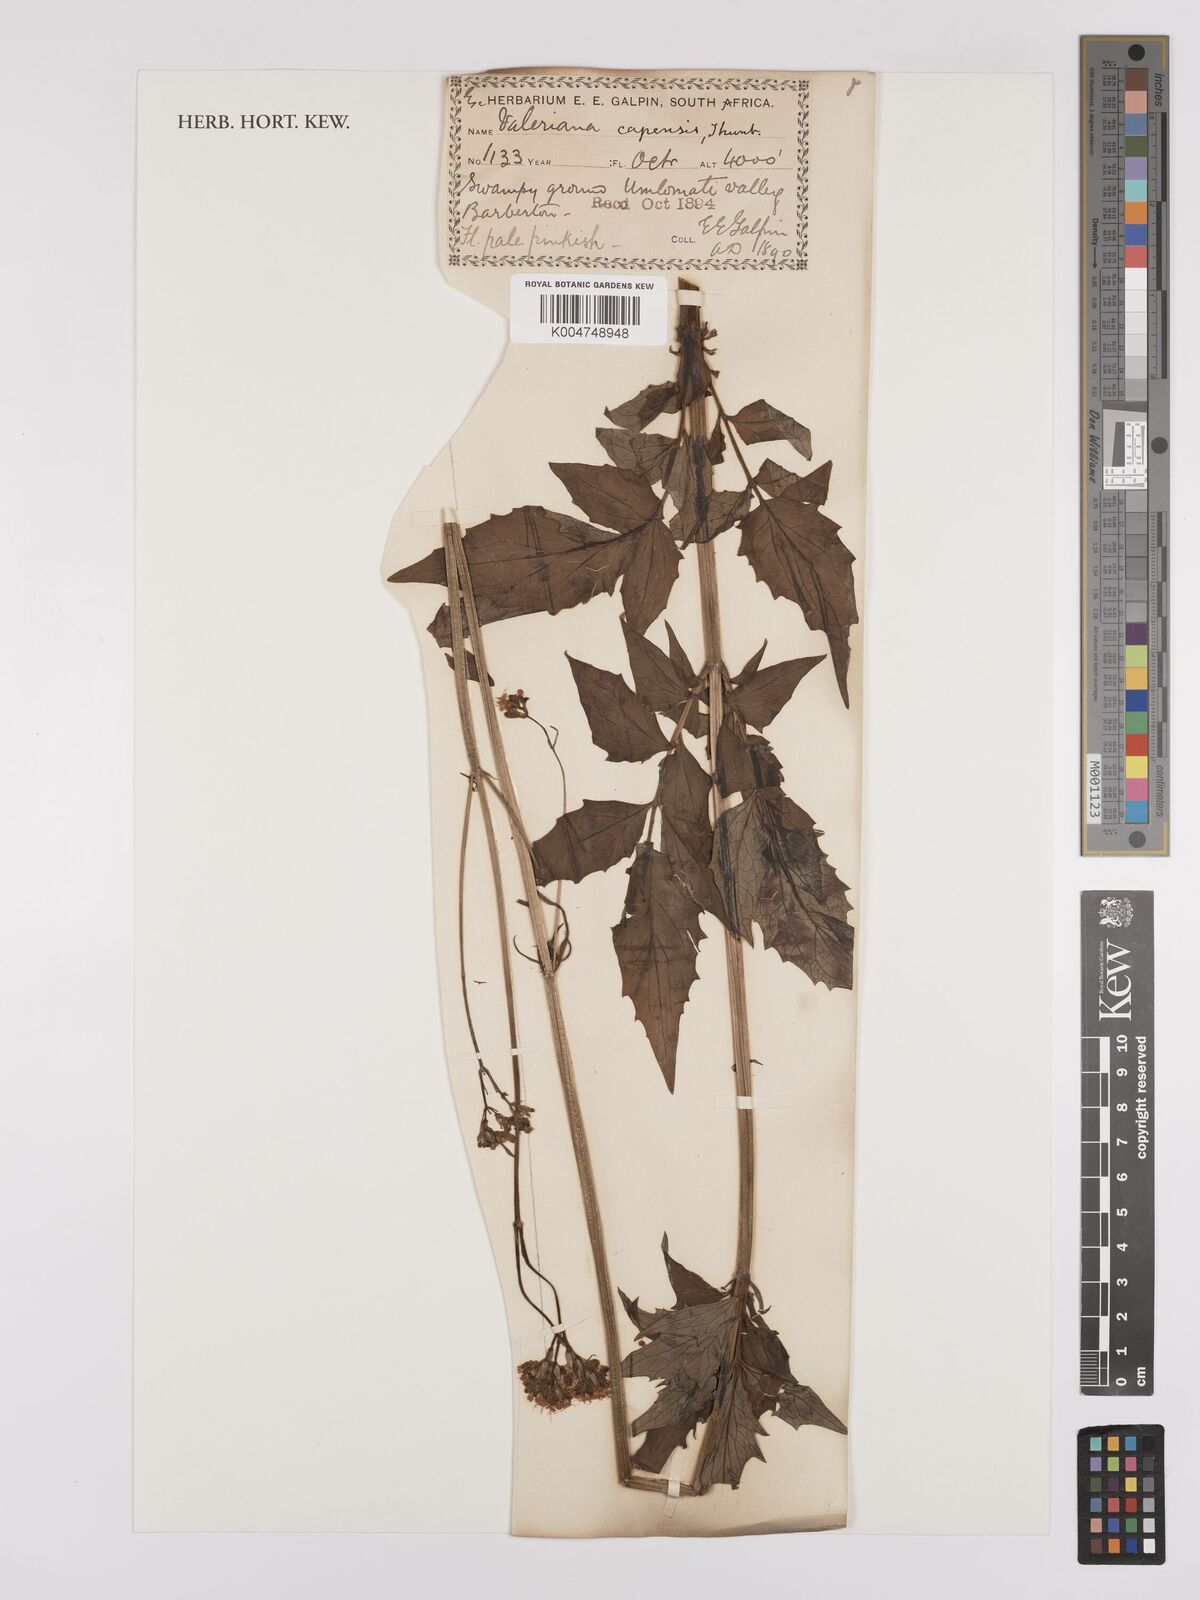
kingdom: Plantae
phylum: Tracheophyta
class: Magnoliopsida
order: Dipsacales
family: Caprifoliaceae
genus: Valeriana
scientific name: Valeriana capensis
